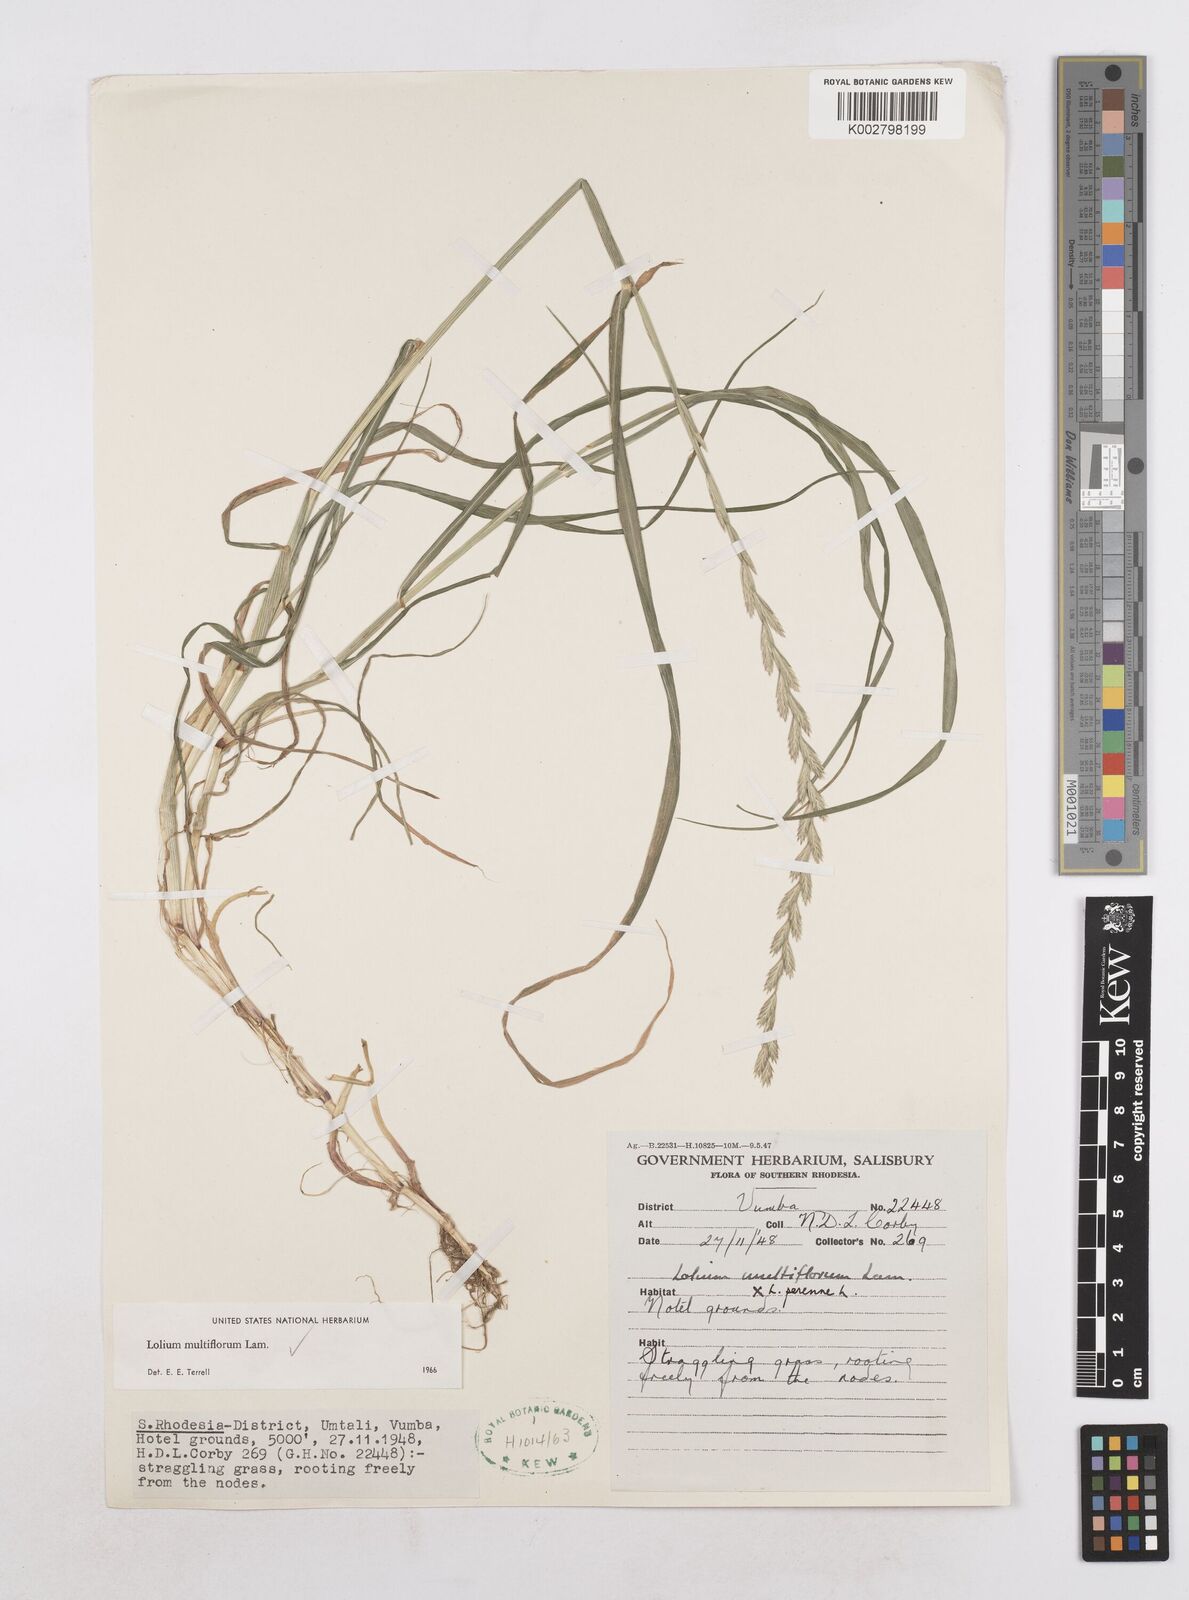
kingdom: Plantae
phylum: Tracheophyta
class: Liliopsida
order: Poales
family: Poaceae
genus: Lolium
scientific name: Lolium multiflorum
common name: Annual ryegrass
